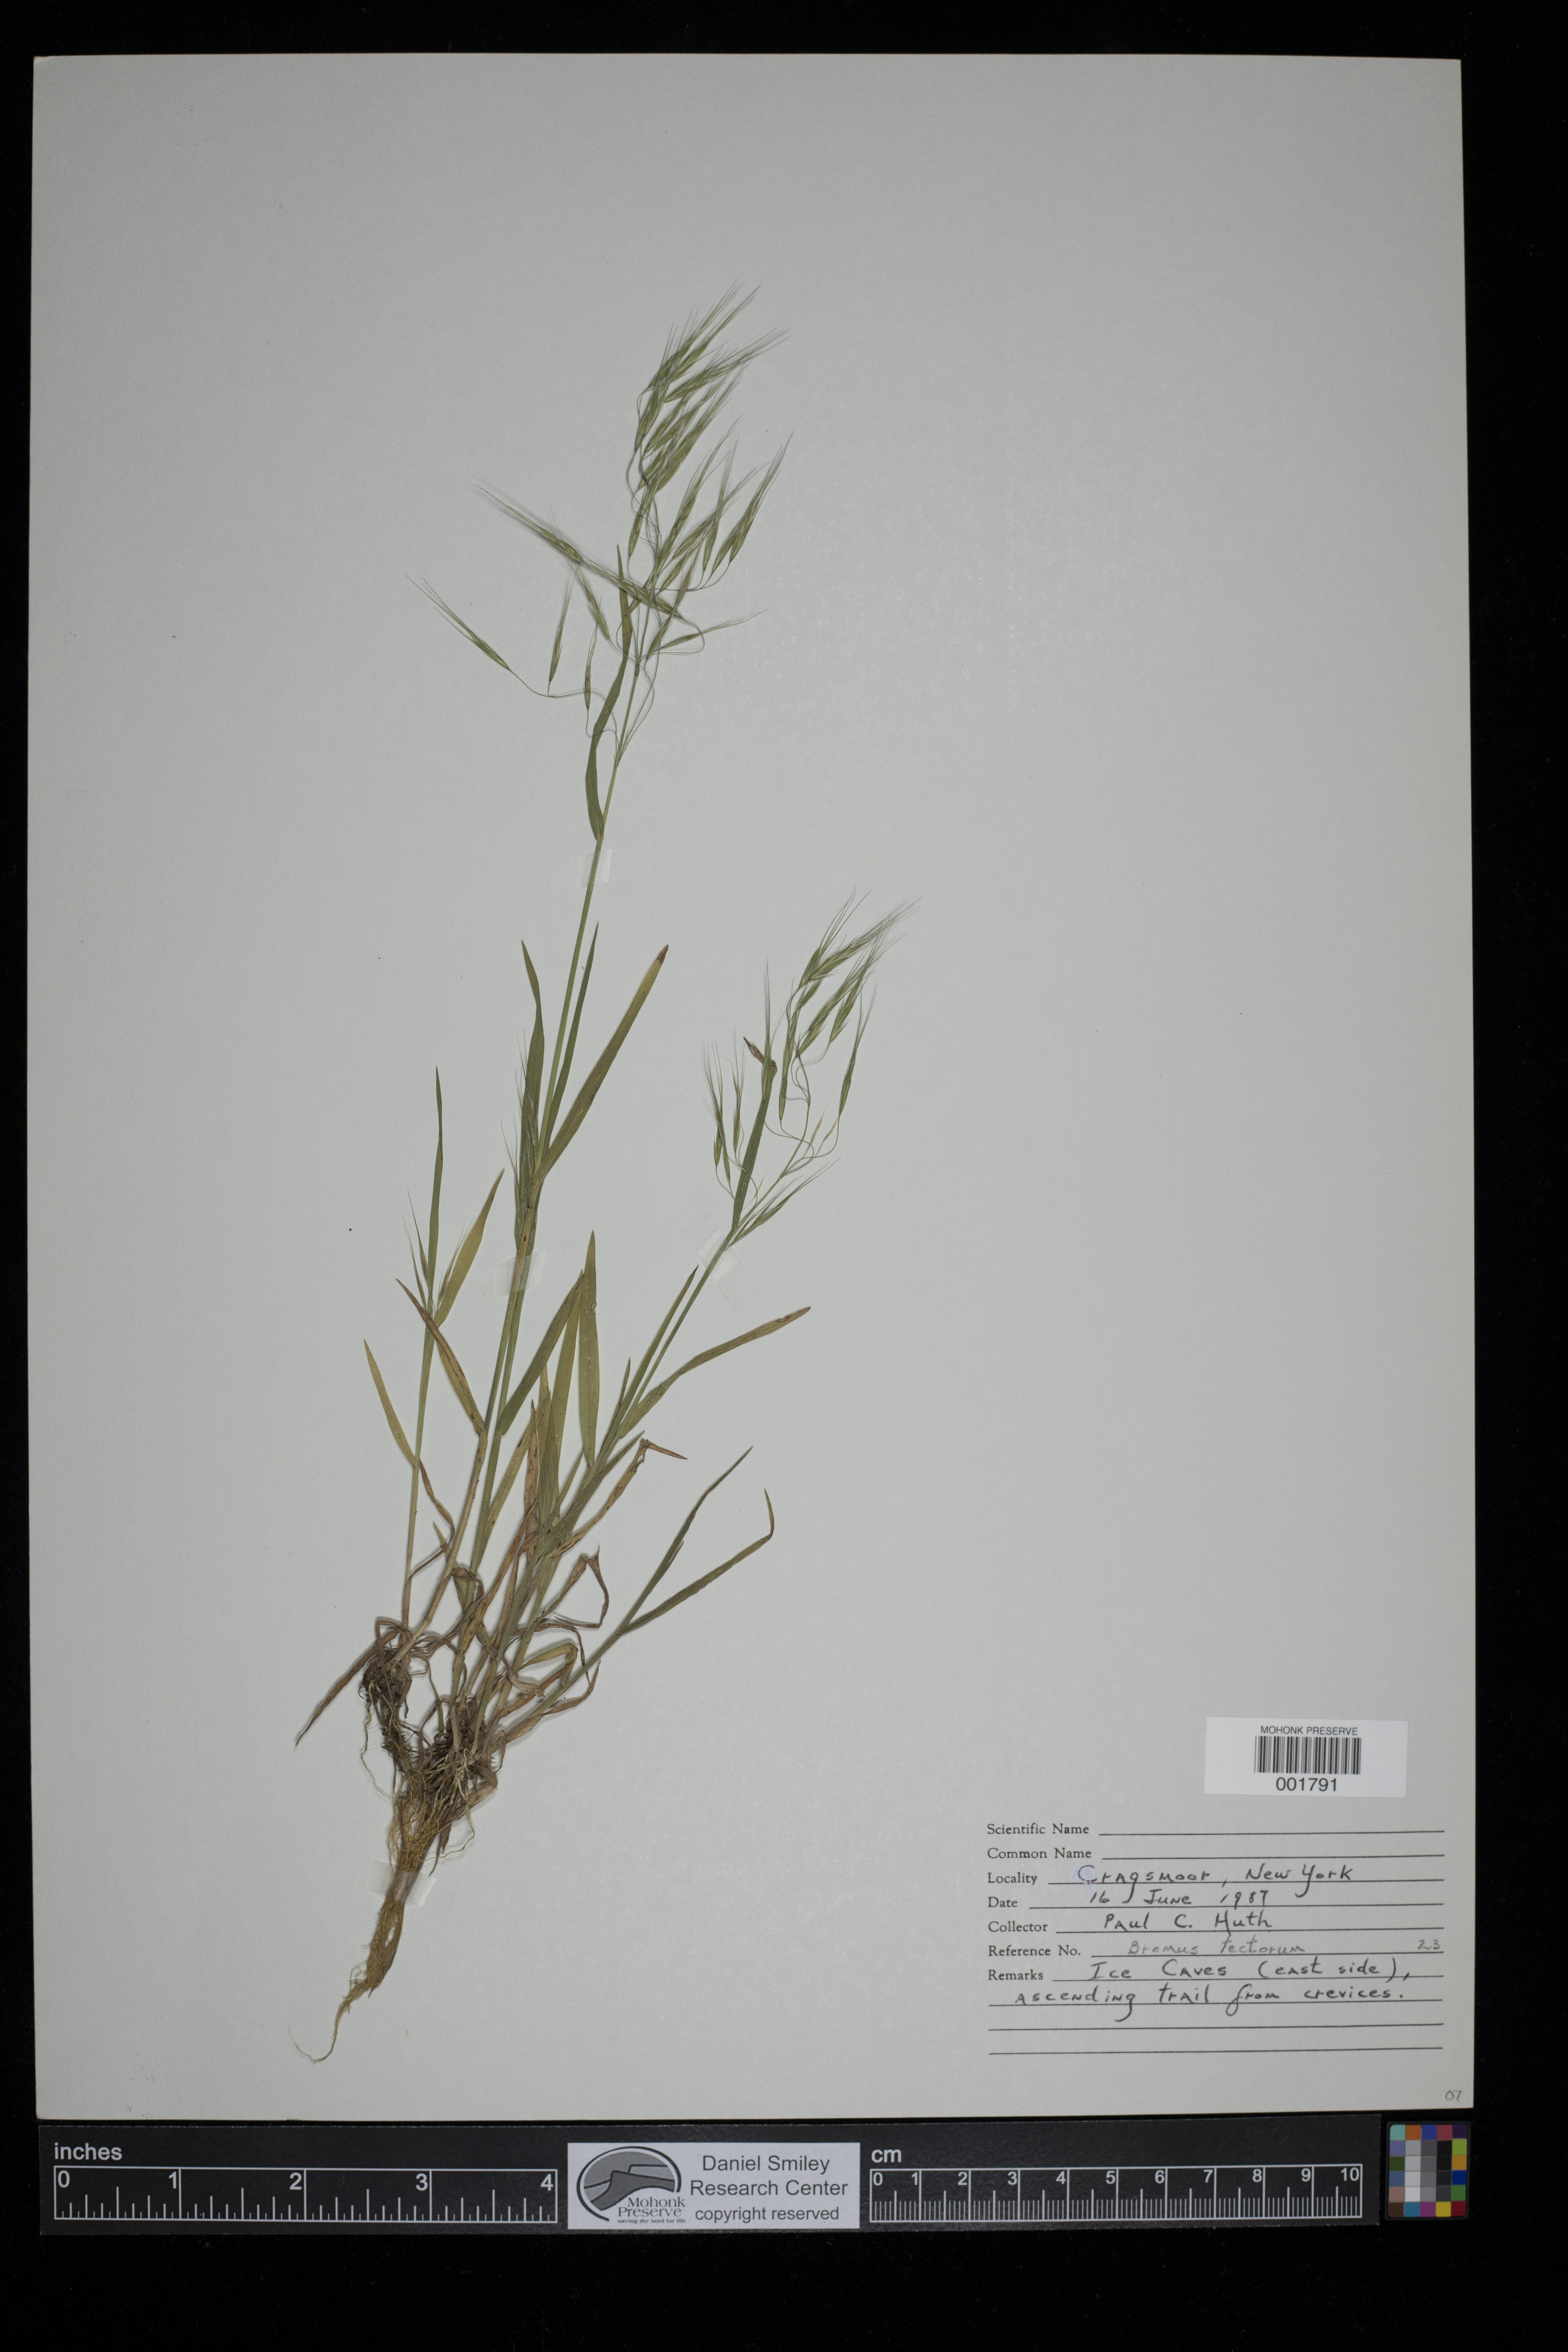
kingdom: Plantae
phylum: Tracheophyta
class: Liliopsida
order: Poales
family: Poaceae
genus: Bromus
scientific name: Bromus tectorum
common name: Cheatgrass
